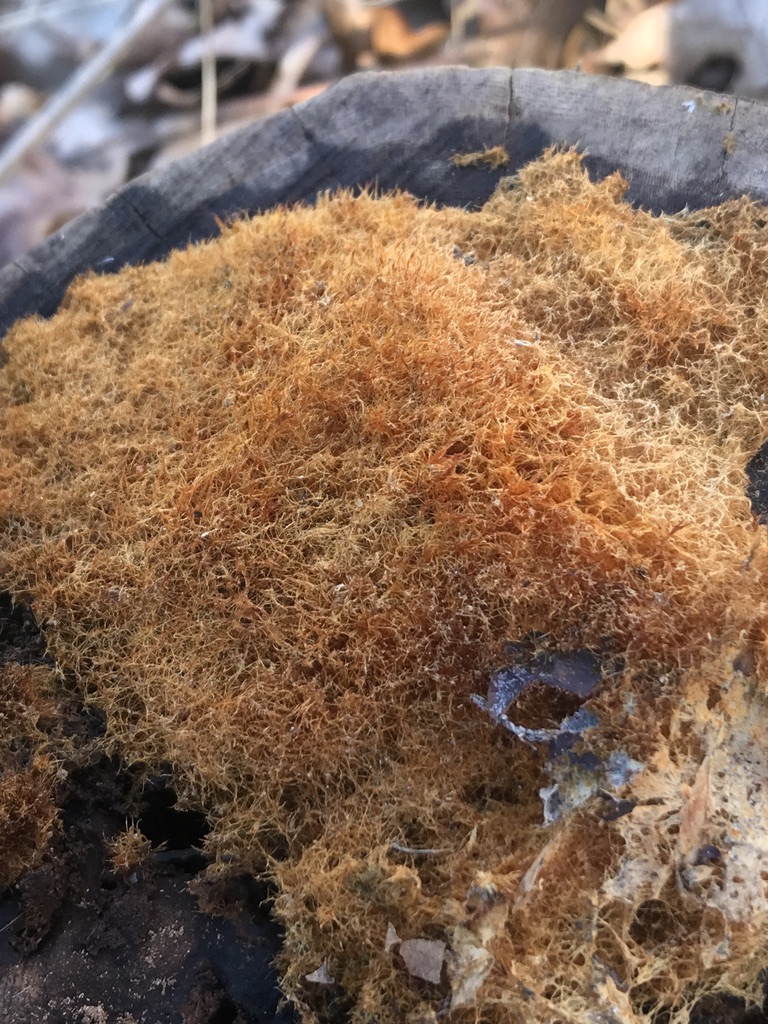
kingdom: Fungi
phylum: Basidiomycota
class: Agaricomycetes
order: Agaricales
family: Psathyrellaceae
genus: Ozonium
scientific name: Ozonium
